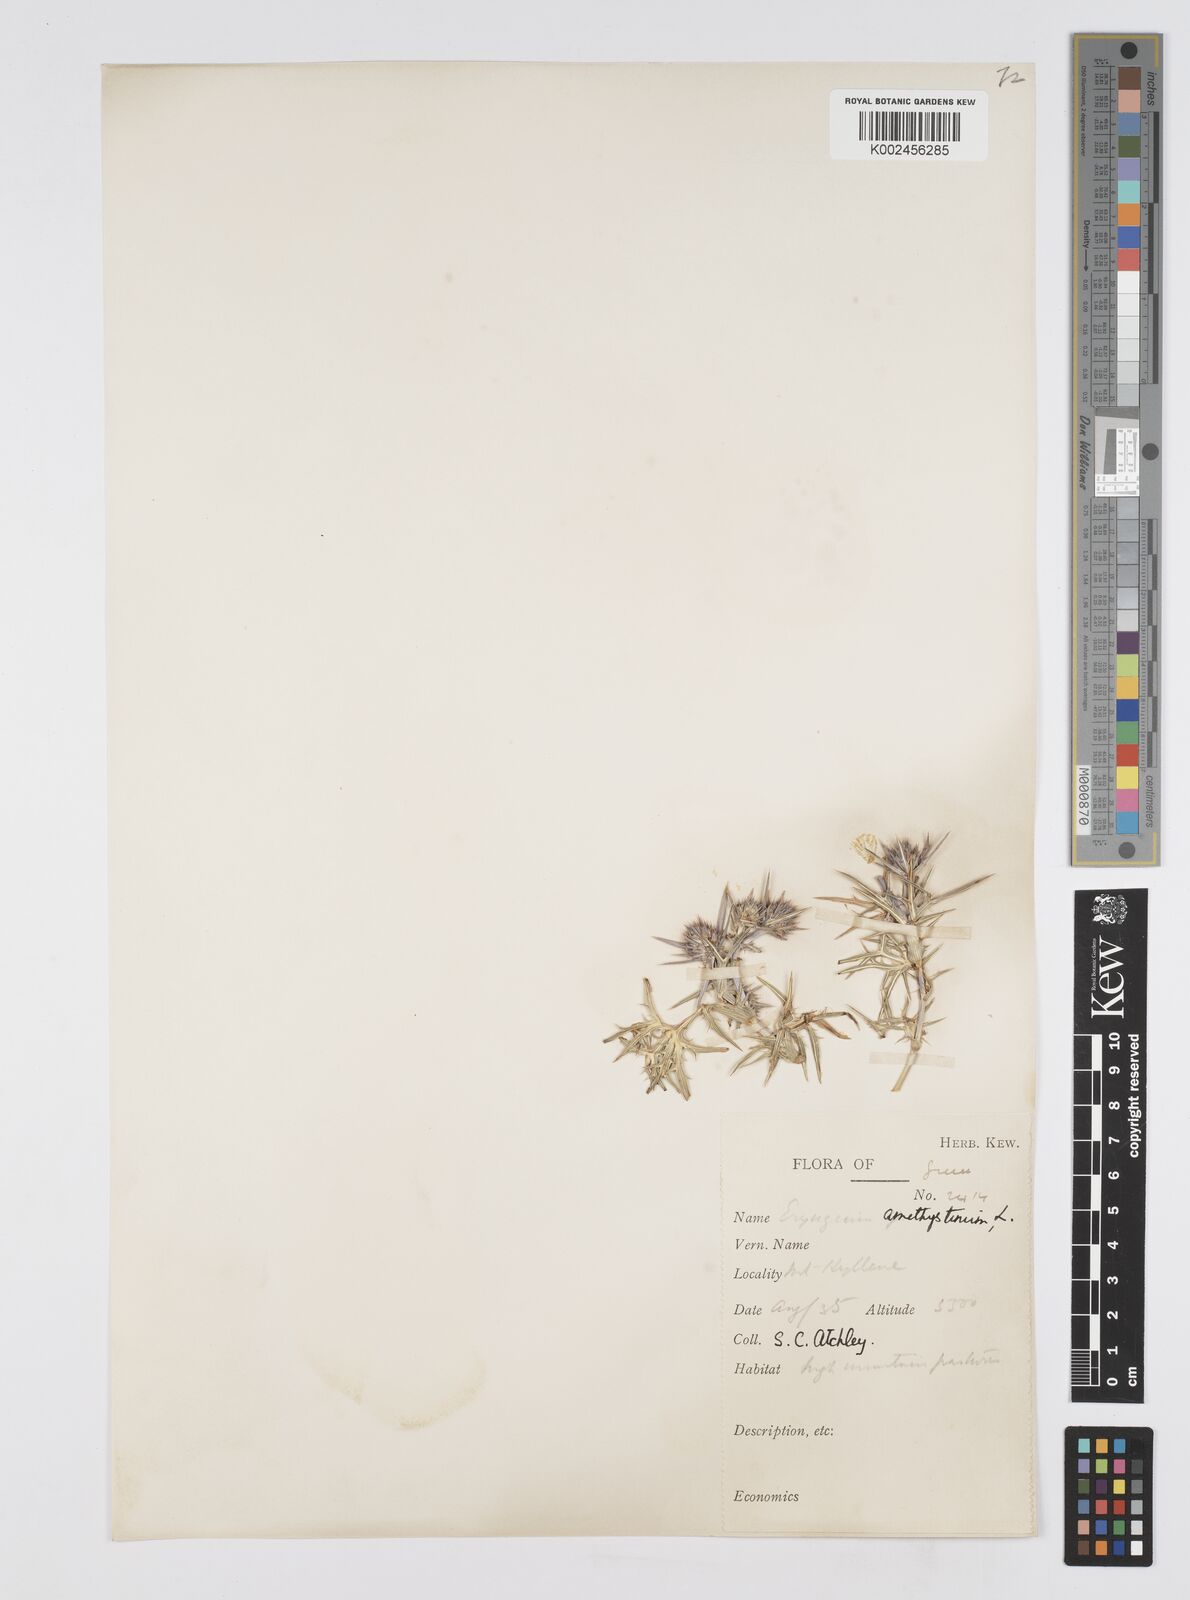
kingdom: Plantae
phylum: Tracheophyta
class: Magnoliopsida
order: Apiales
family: Apiaceae
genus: Eryngium
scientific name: Eryngium amethystinum
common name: Amethyst eryngo
